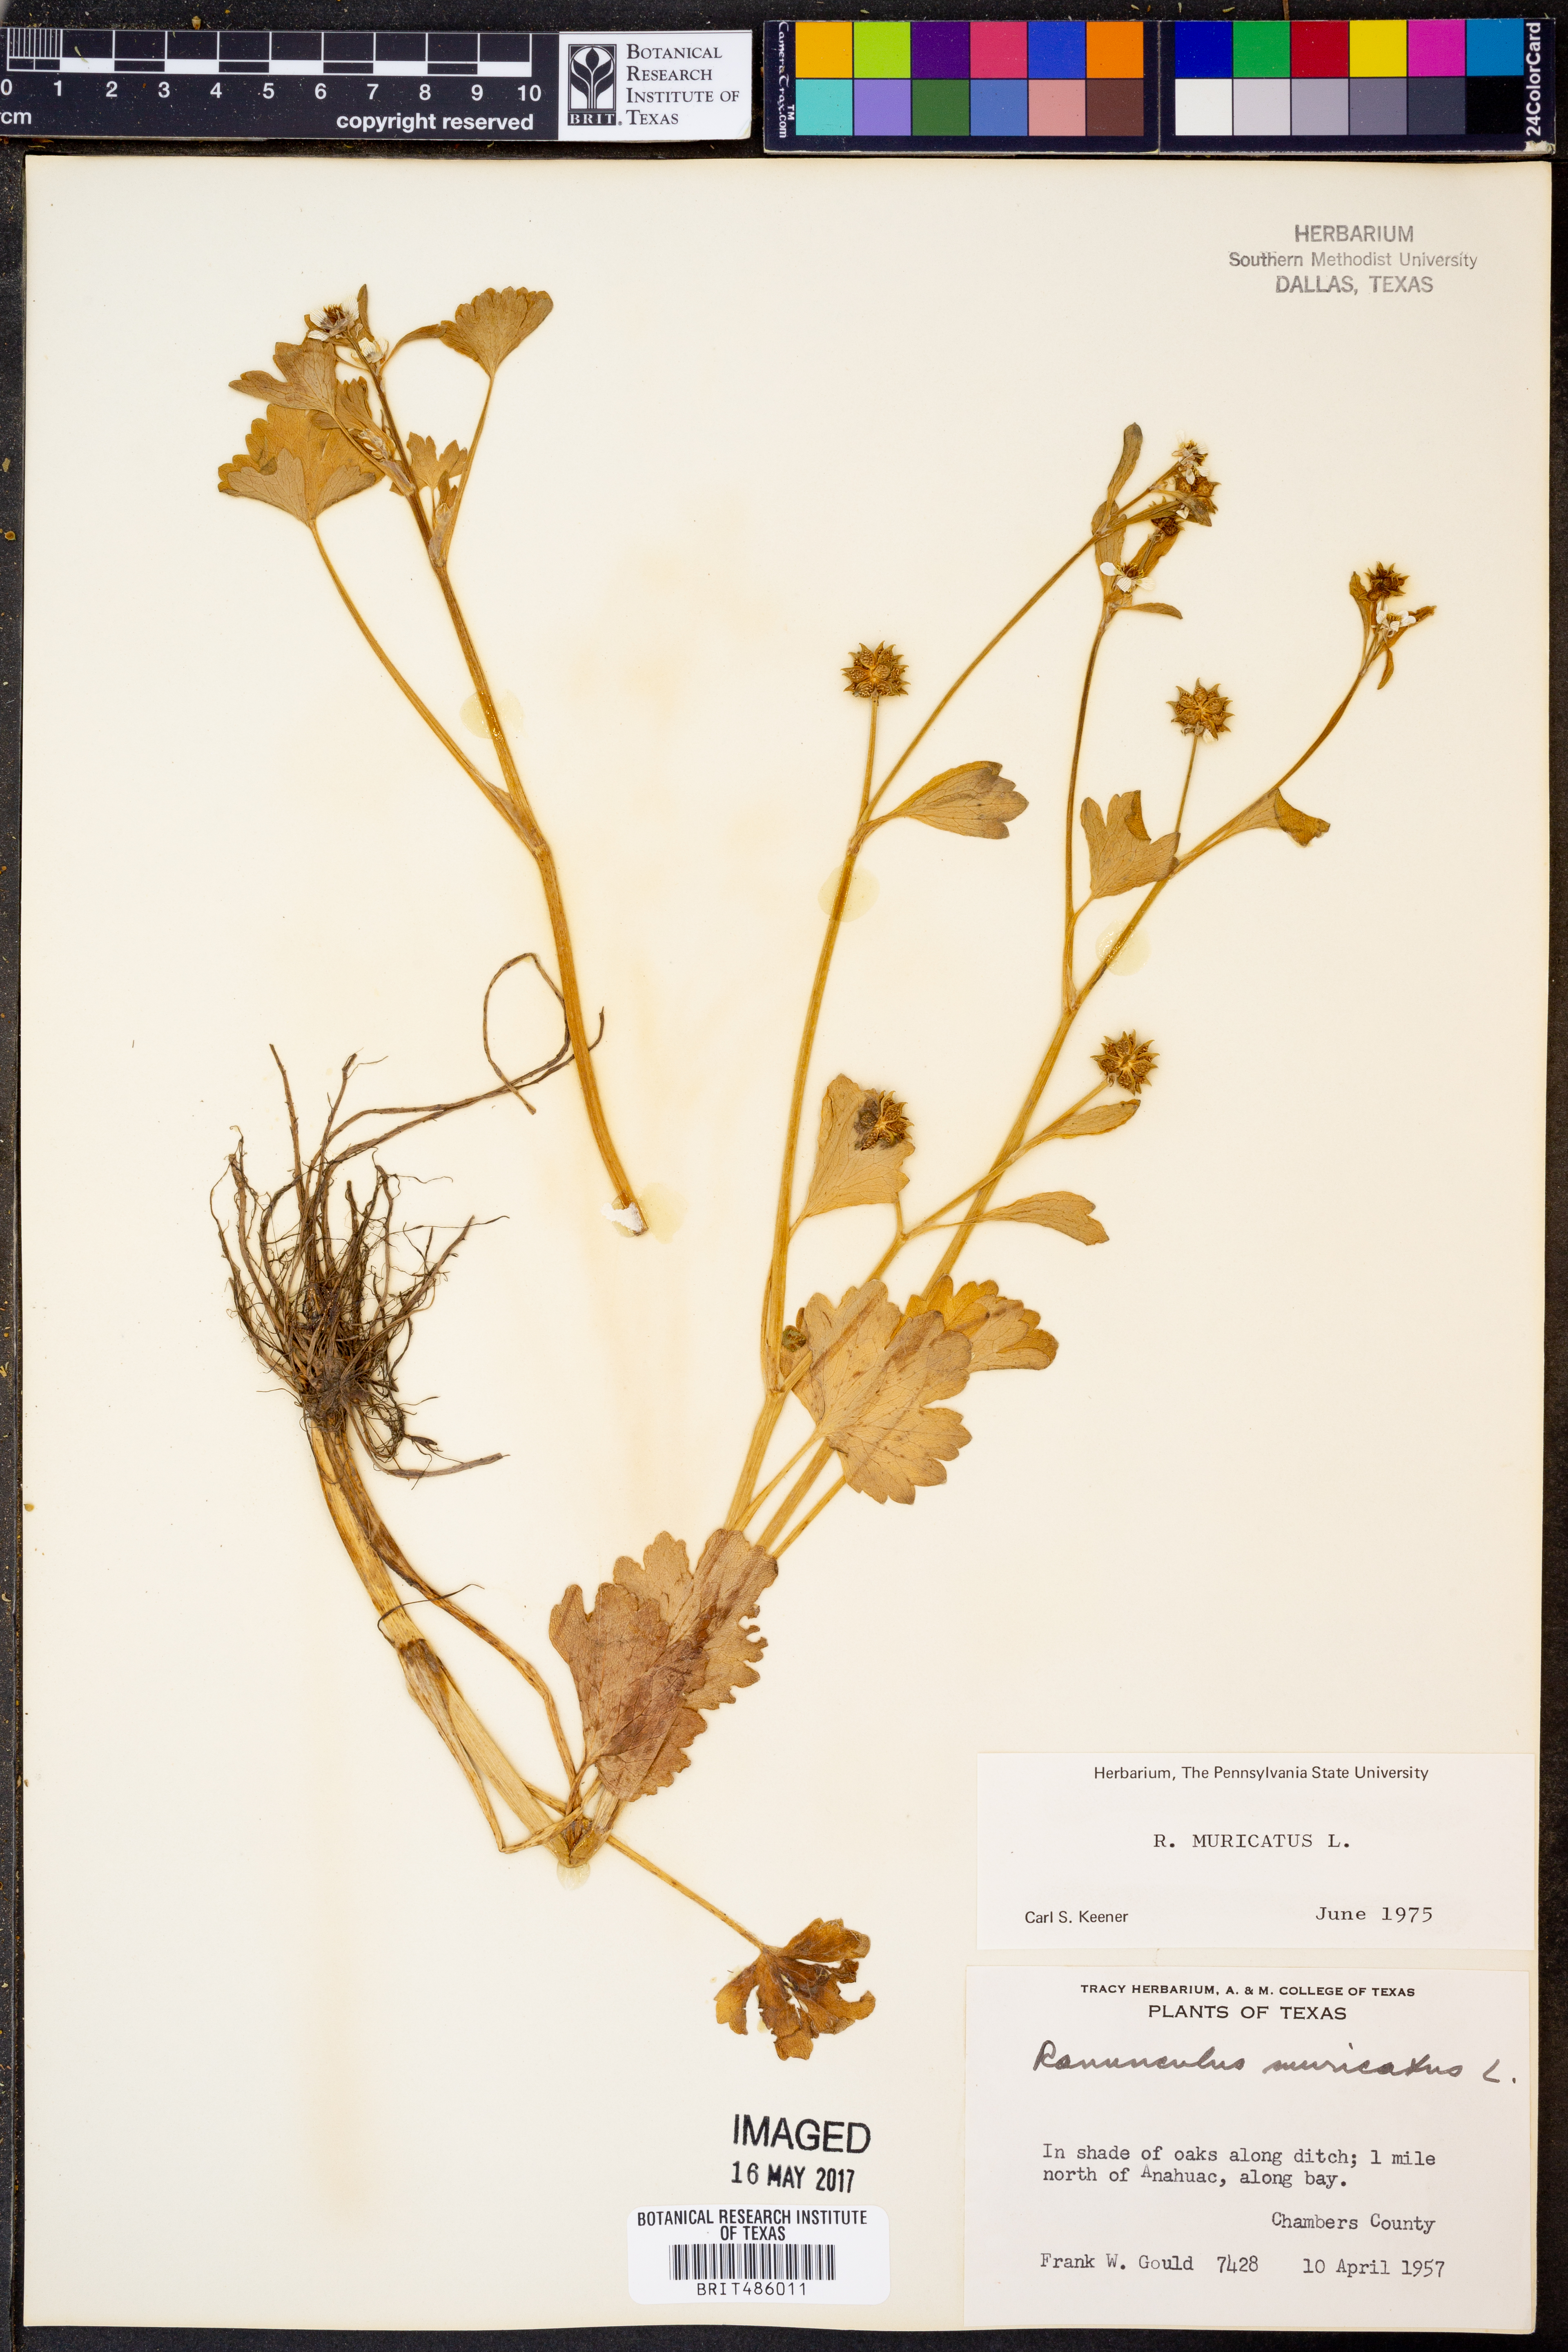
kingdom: Plantae
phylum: Tracheophyta
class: Magnoliopsida
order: Ranunculales
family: Ranunculaceae
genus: Ranunculus
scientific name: Ranunculus muricatus
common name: Rough-fruited buttercup
